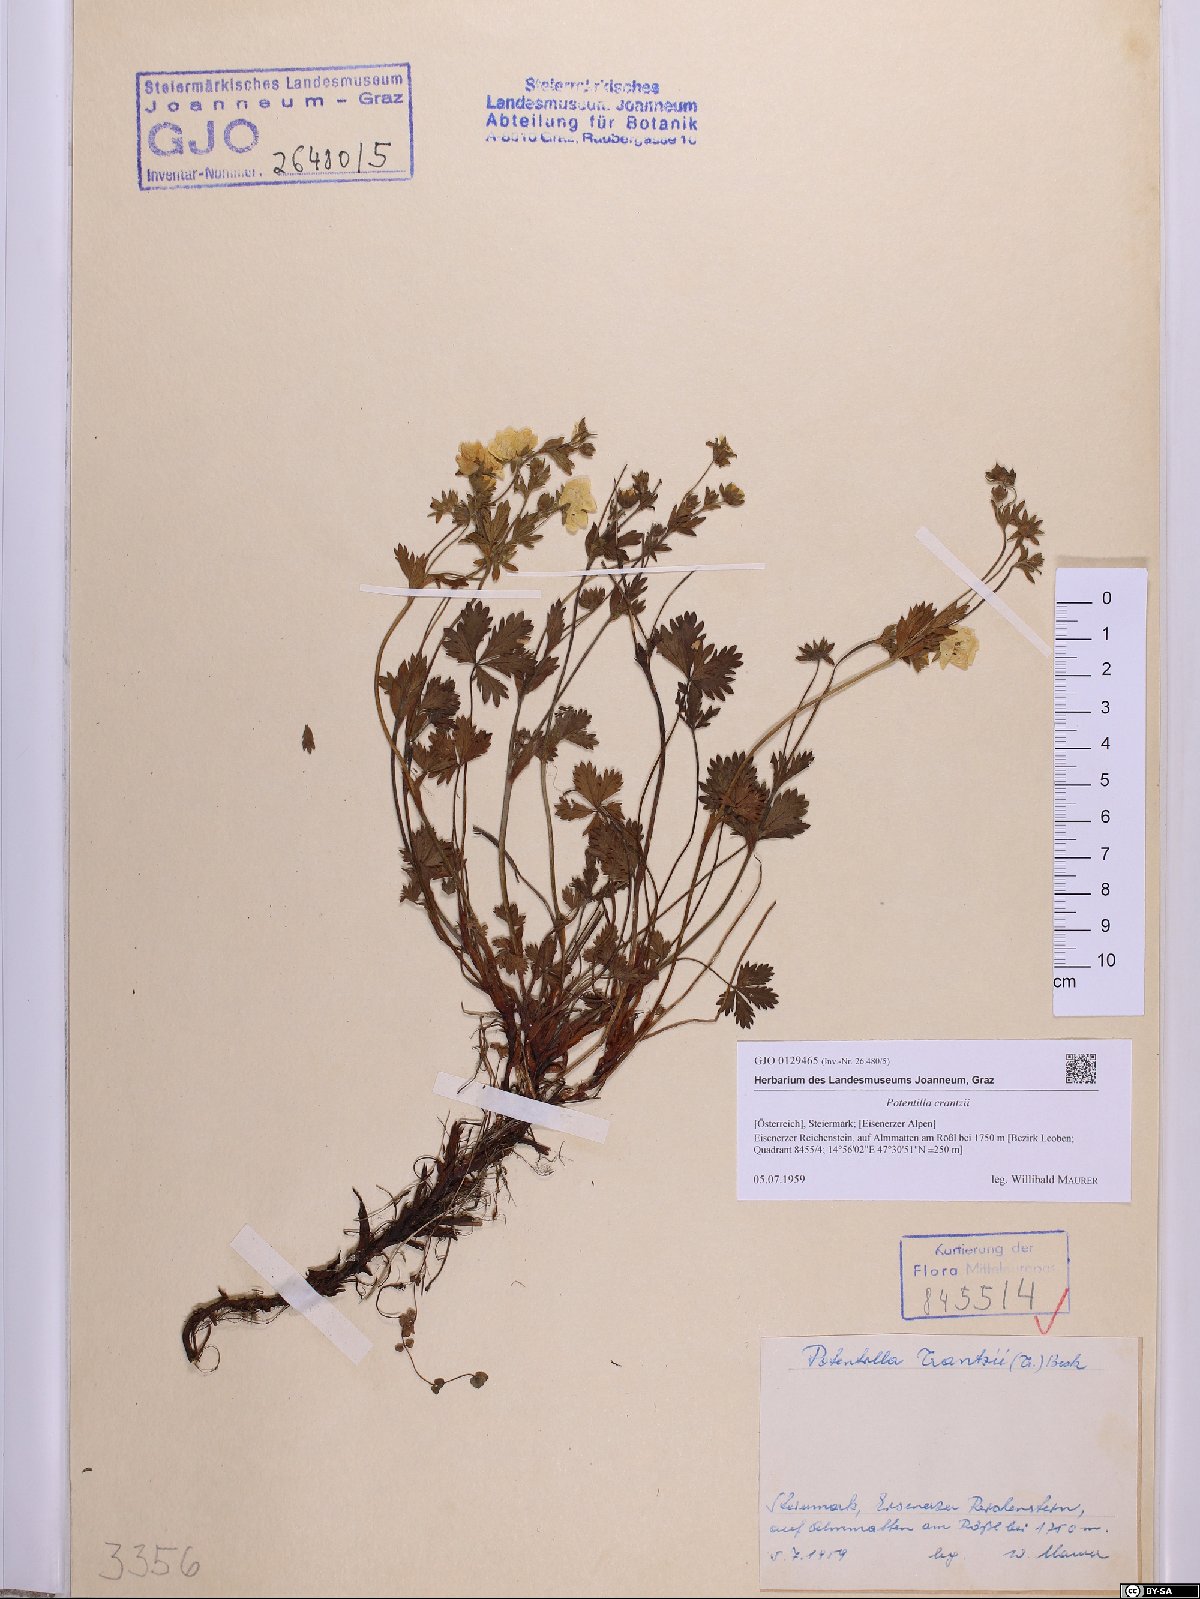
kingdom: Plantae
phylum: Tracheophyta
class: Magnoliopsida
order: Rosales
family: Rosaceae
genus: Potentilla
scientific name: Potentilla crantzii
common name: Alpine cinquefoil
